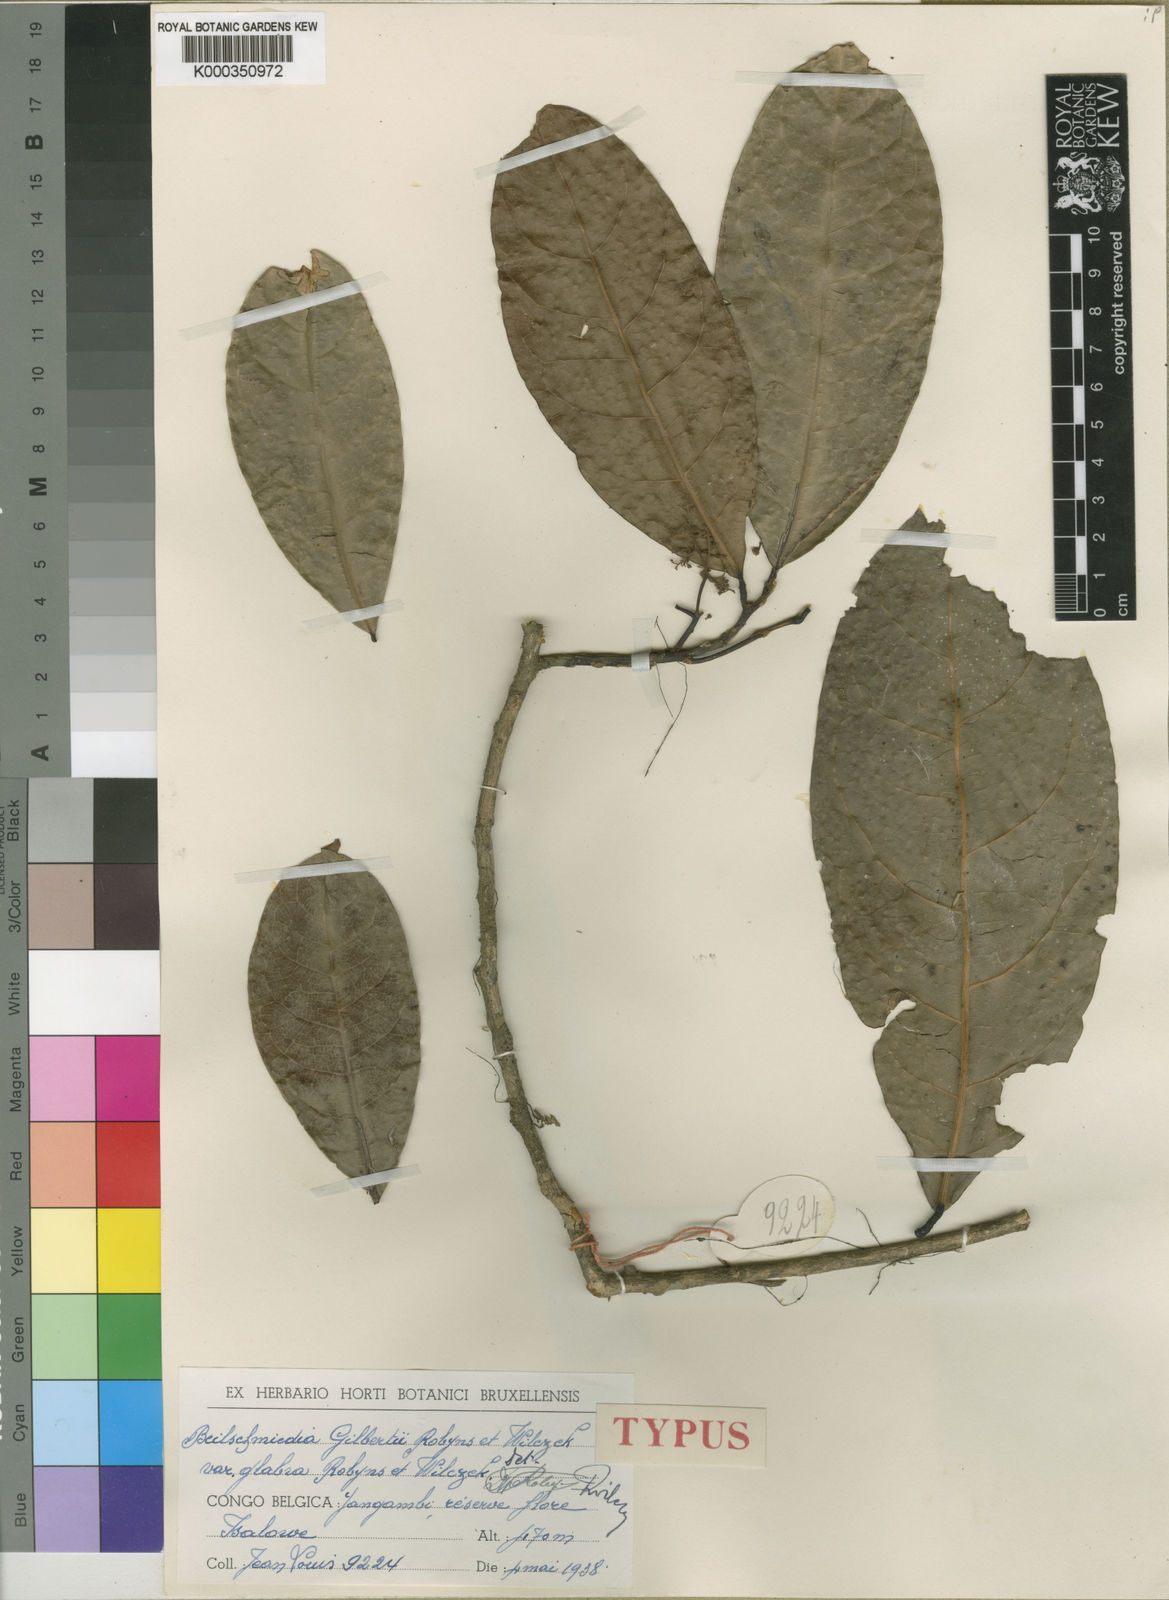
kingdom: Plantae
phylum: Tracheophyta
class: Magnoliopsida
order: Laurales
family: Lauraceae
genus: Beilschmiedia
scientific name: Beilschmiedia gilbertii
